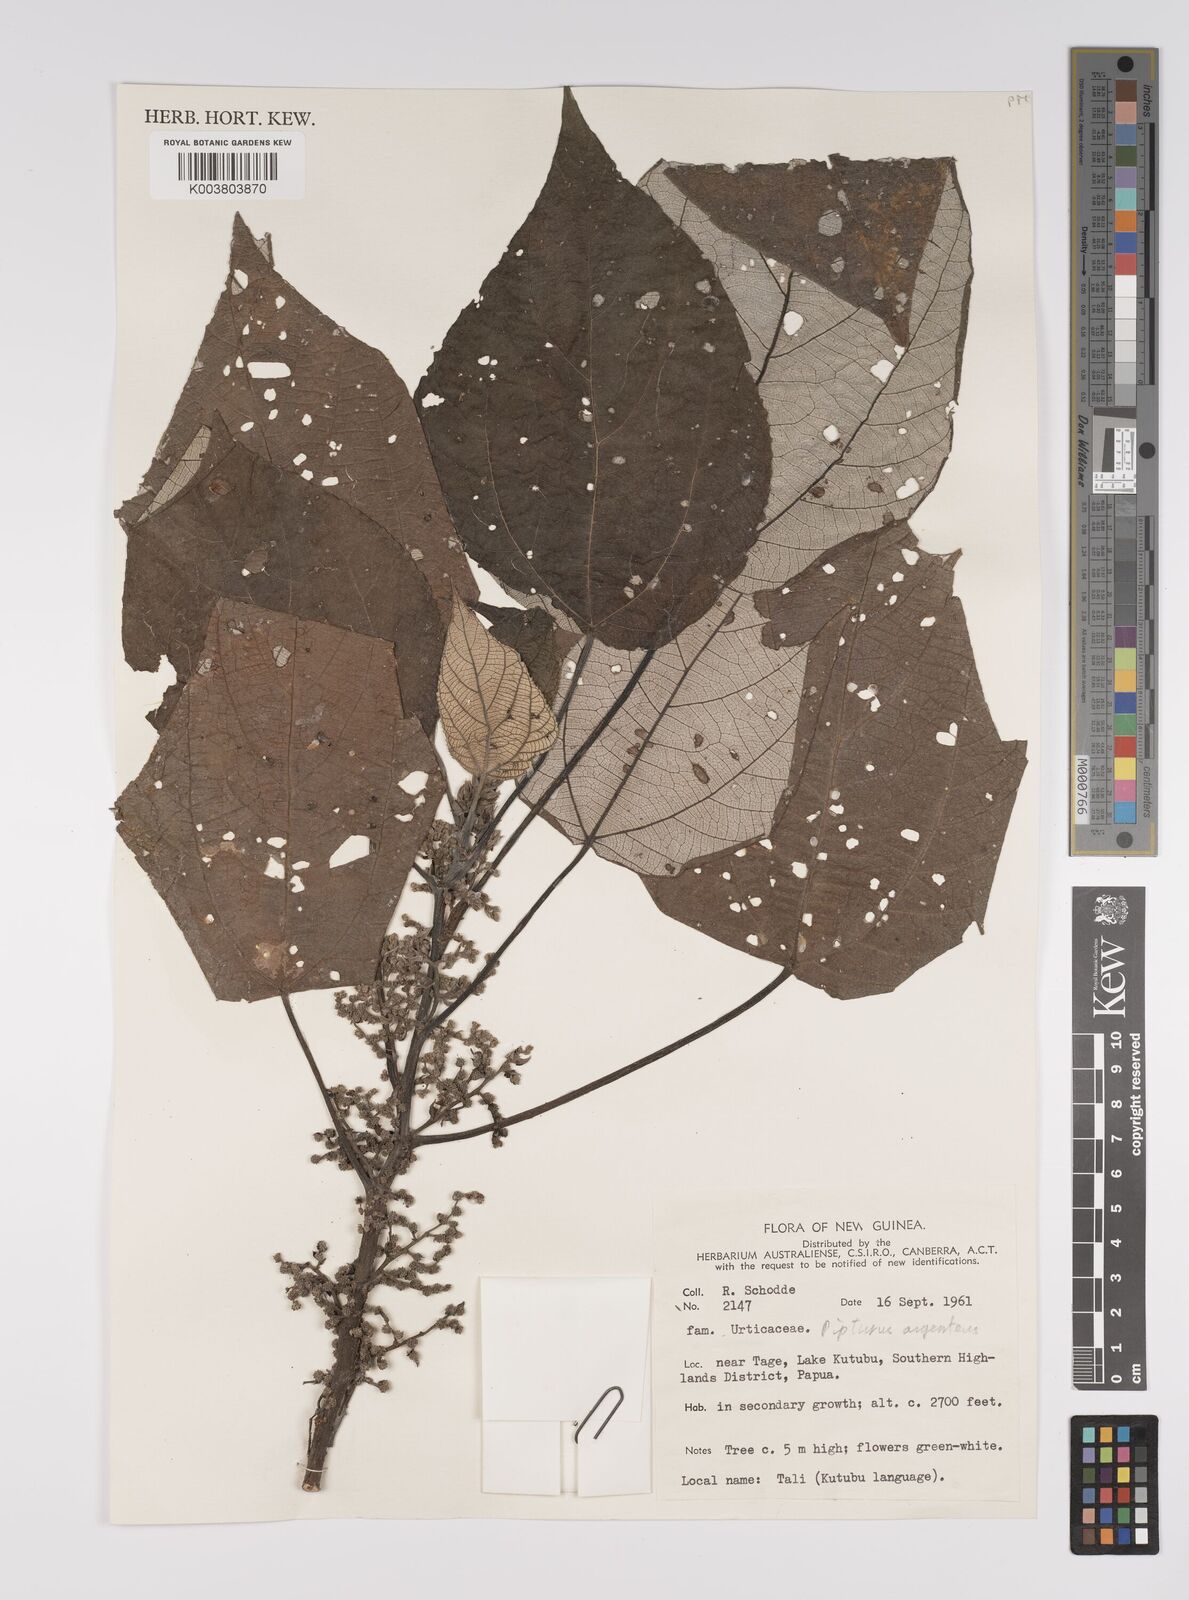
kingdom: Plantae
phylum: Tracheophyta
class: Magnoliopsida
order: Rosales
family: Urticaceae
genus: Pipturus
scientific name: Pipturus argenteus
